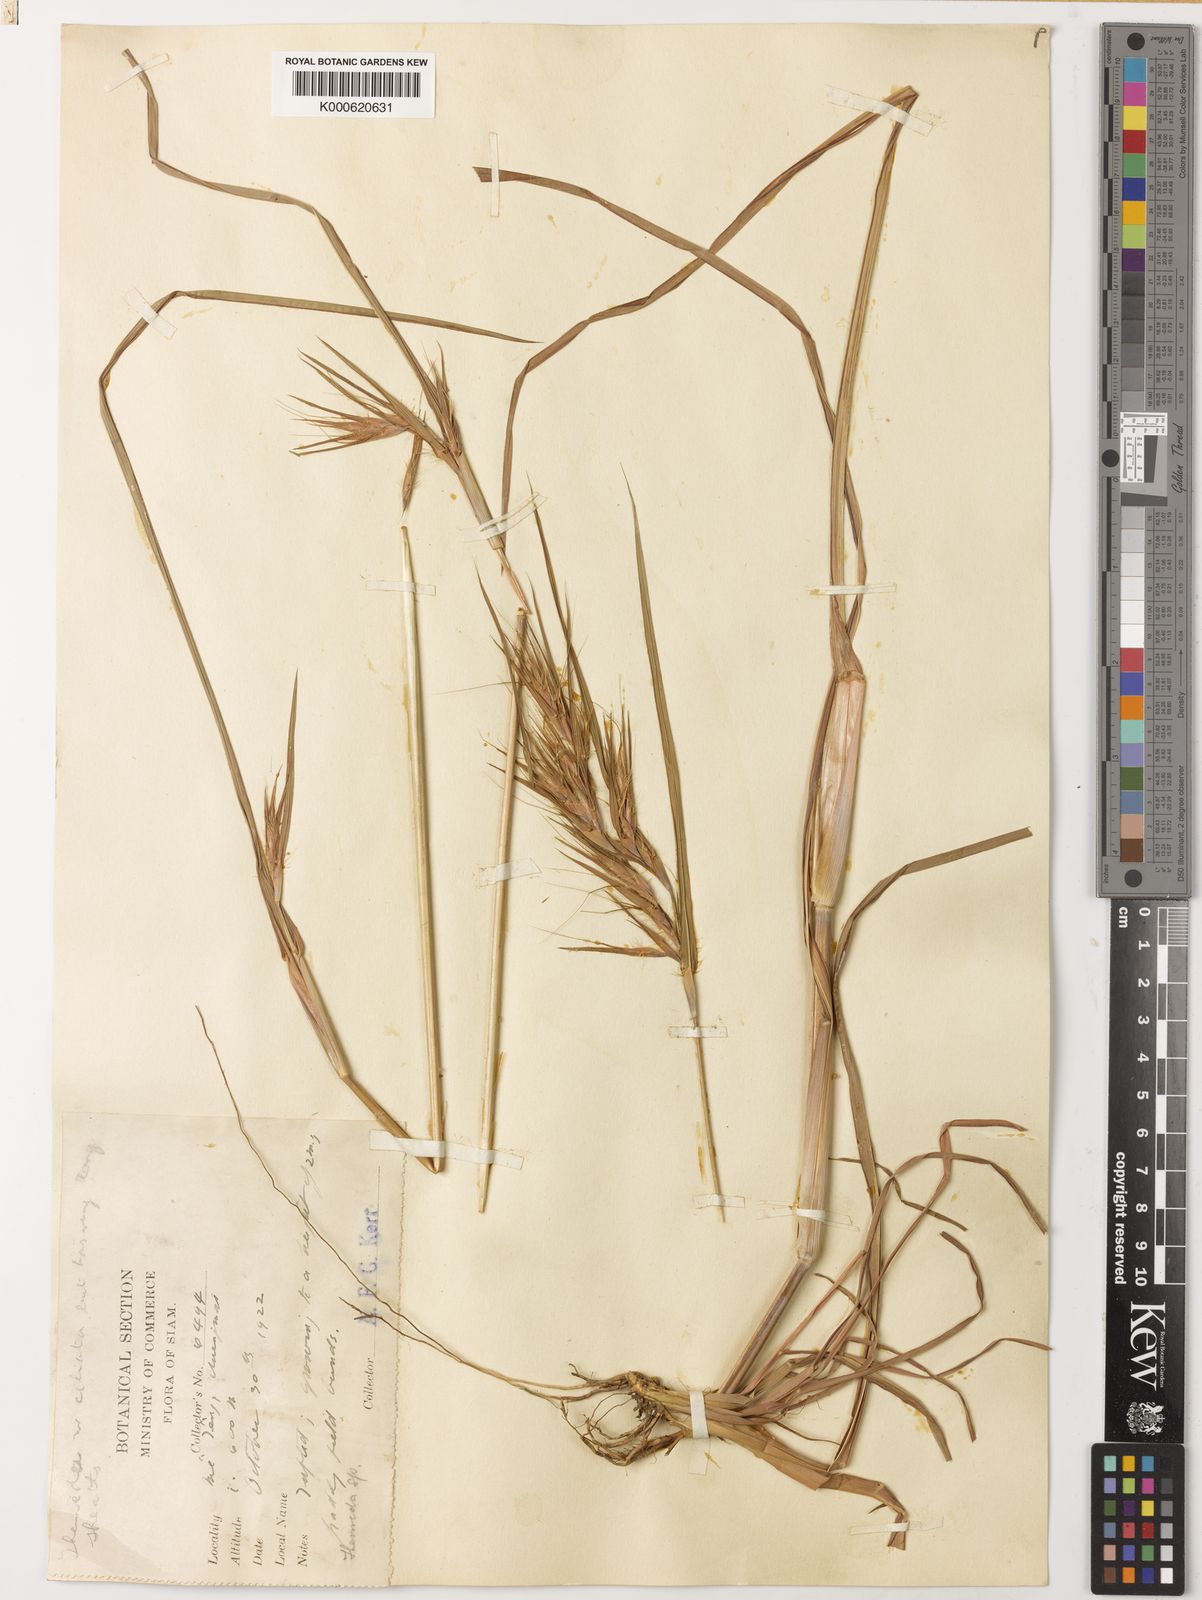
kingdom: Plantae
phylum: Tracheophyta
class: Liliopsida
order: Poales
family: Poaceae
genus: Themeda
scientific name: Themeda quadrivalvis
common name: Kangaroo grass
